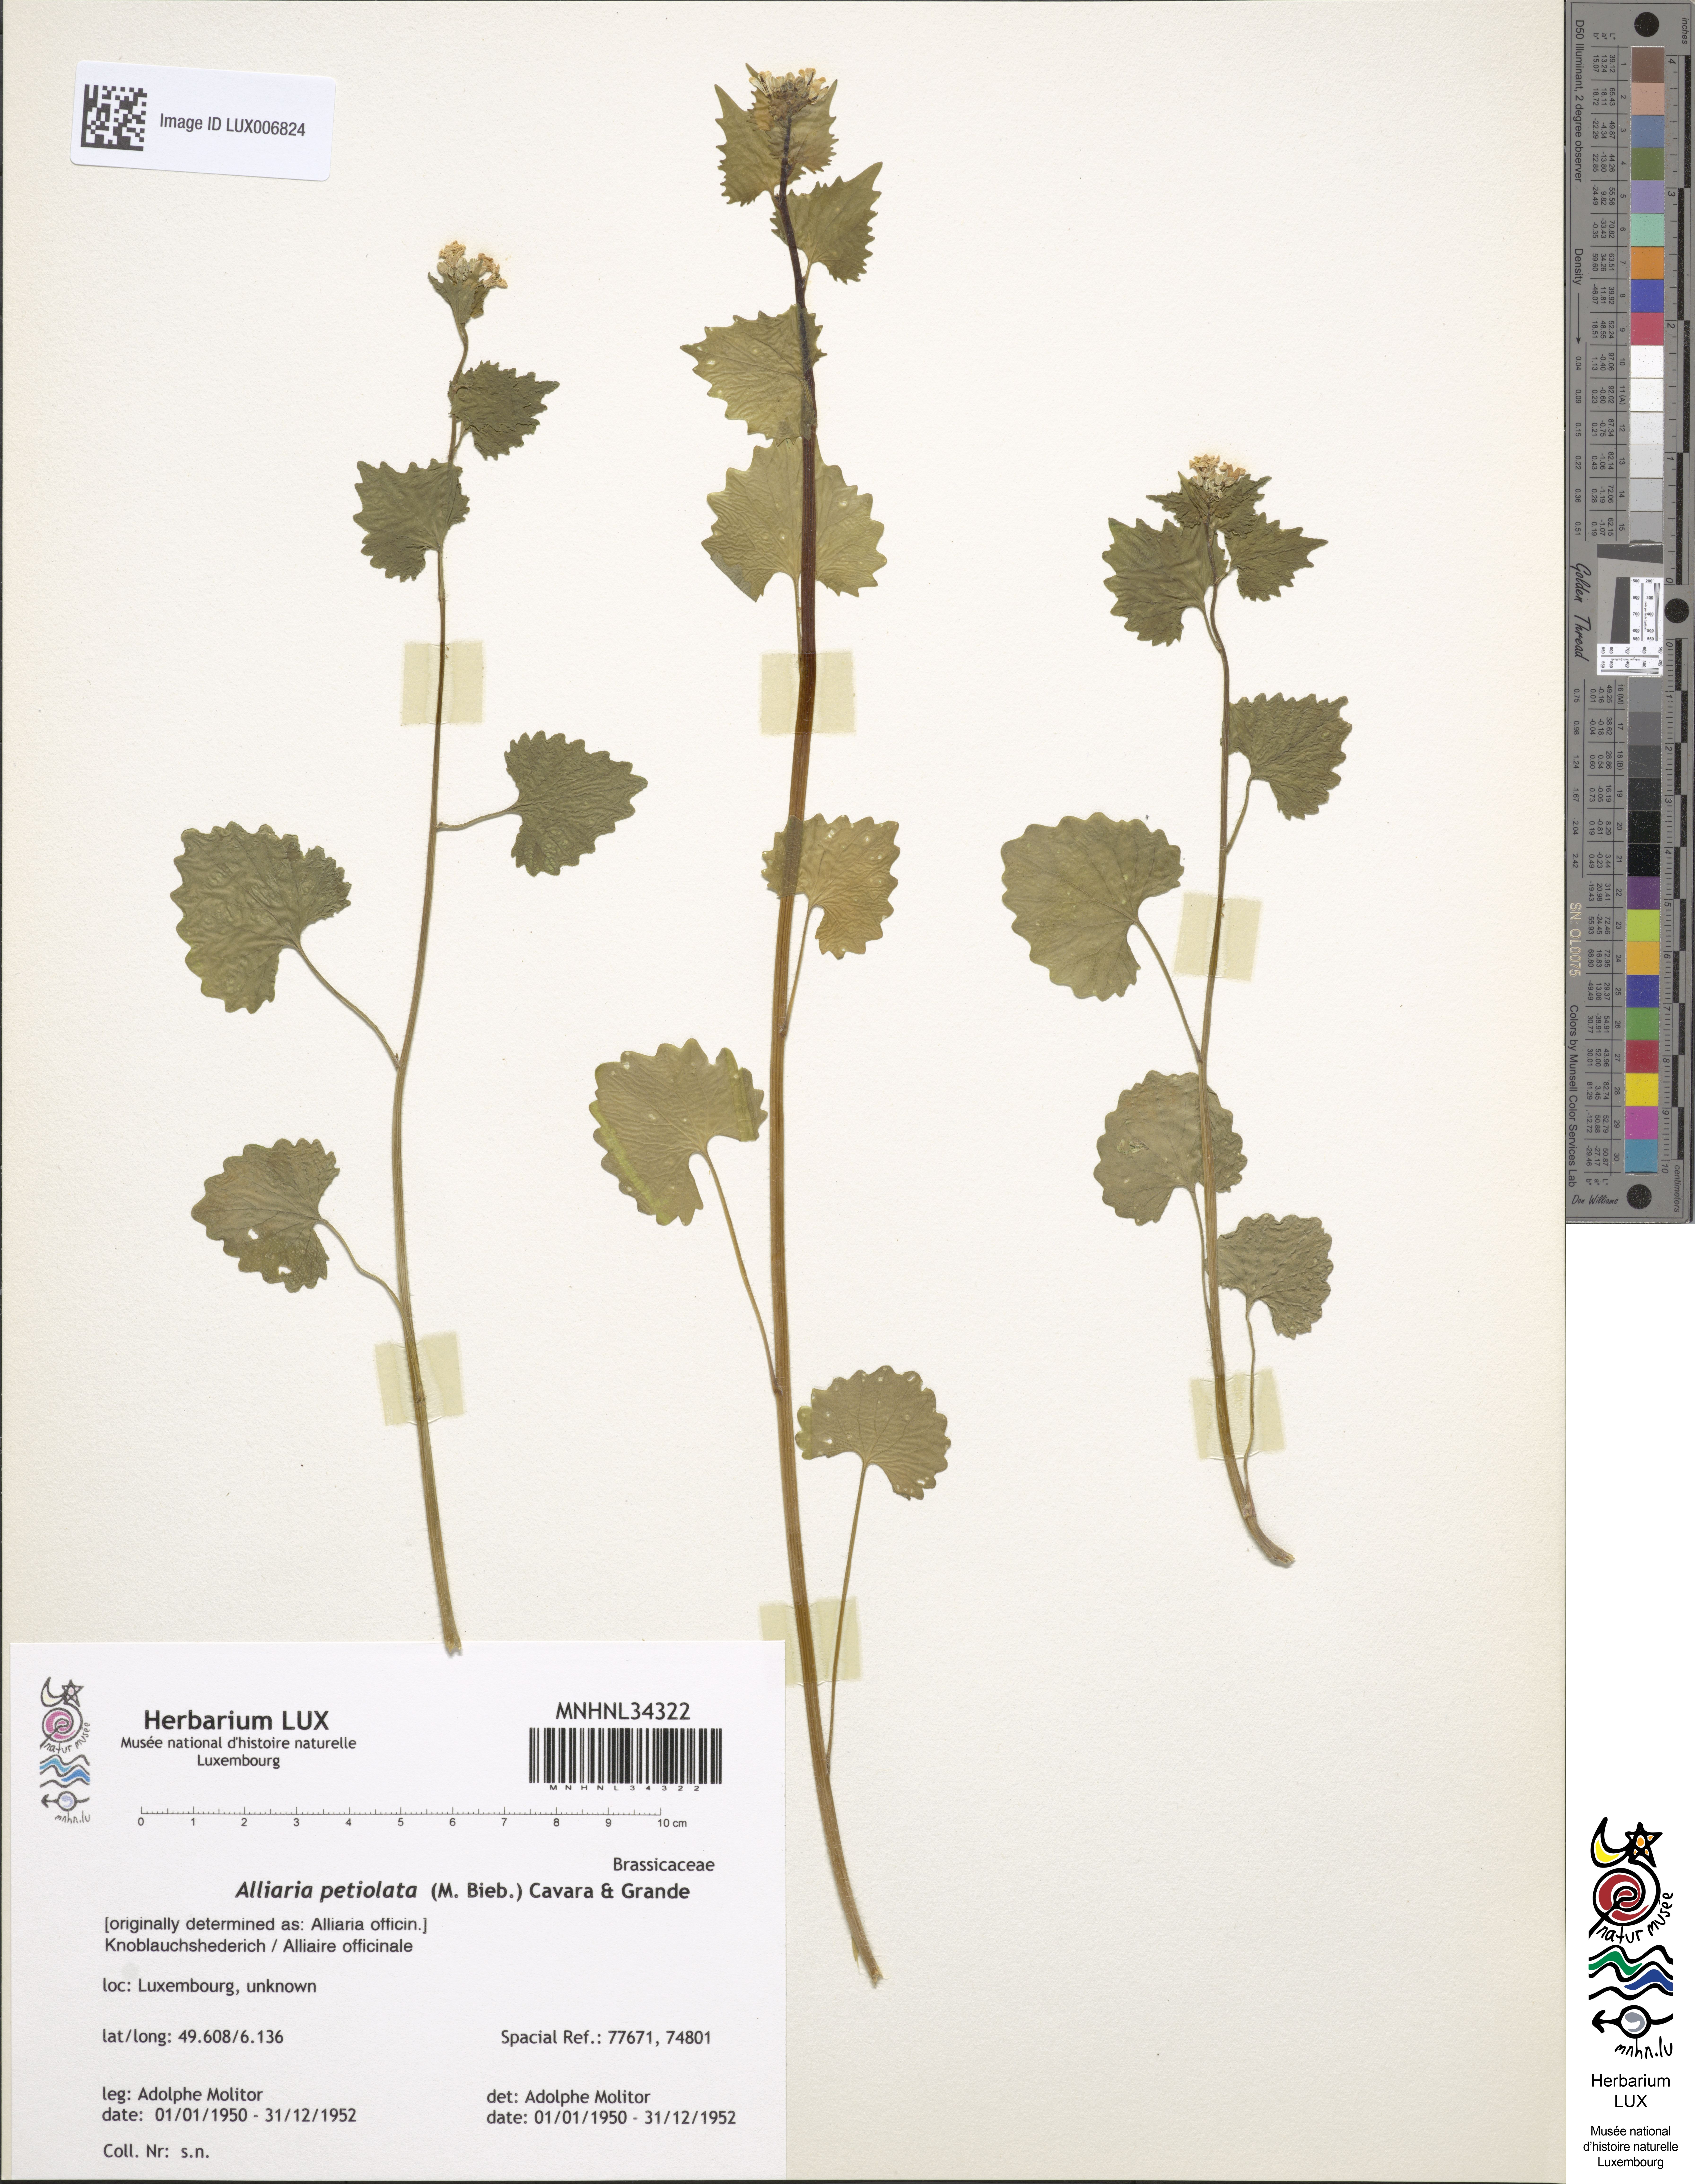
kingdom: Plantae
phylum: Tracheophyta
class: Magnoliopsida
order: Brassicales
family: Brassicaceae
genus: Alliaria
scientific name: Alliaria petiolata
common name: Garlic mustard
